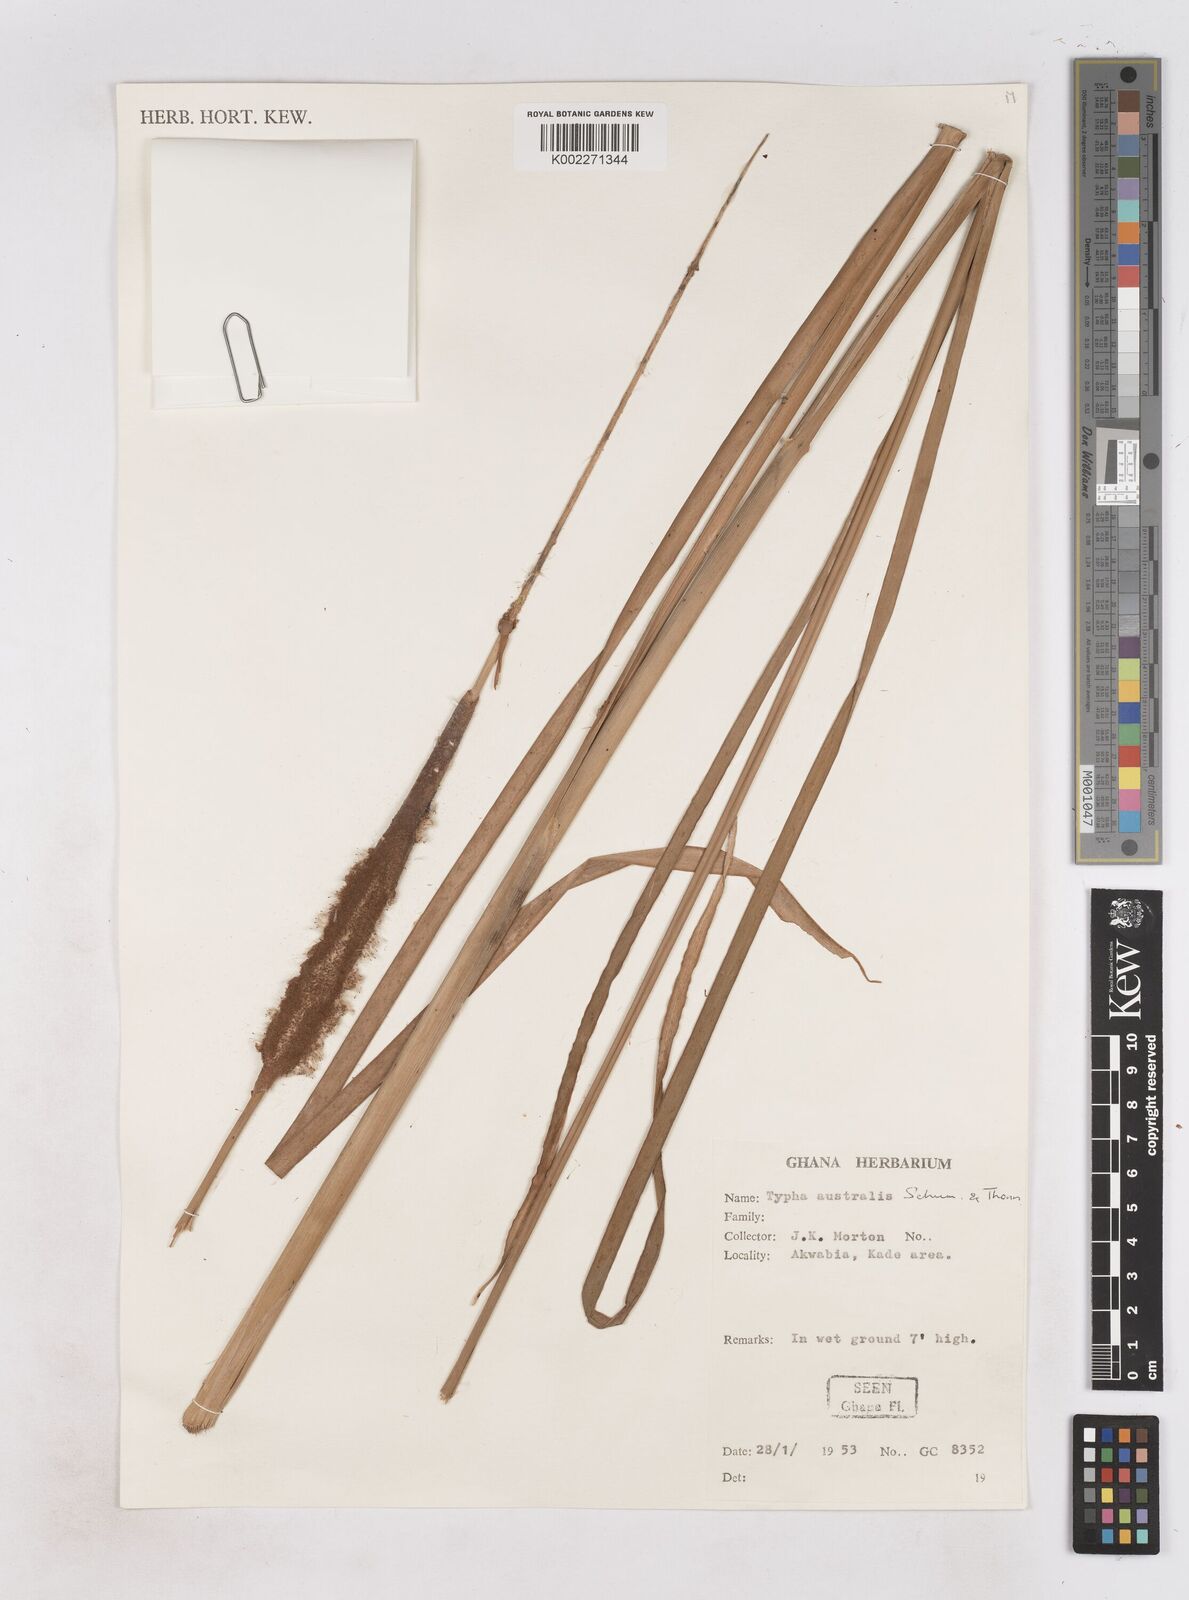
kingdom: Plantae
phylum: Tracheophyta
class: Liliopsida
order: Poales
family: Typhaceae
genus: Typha
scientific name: Typha domingensis
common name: Southern cattail
